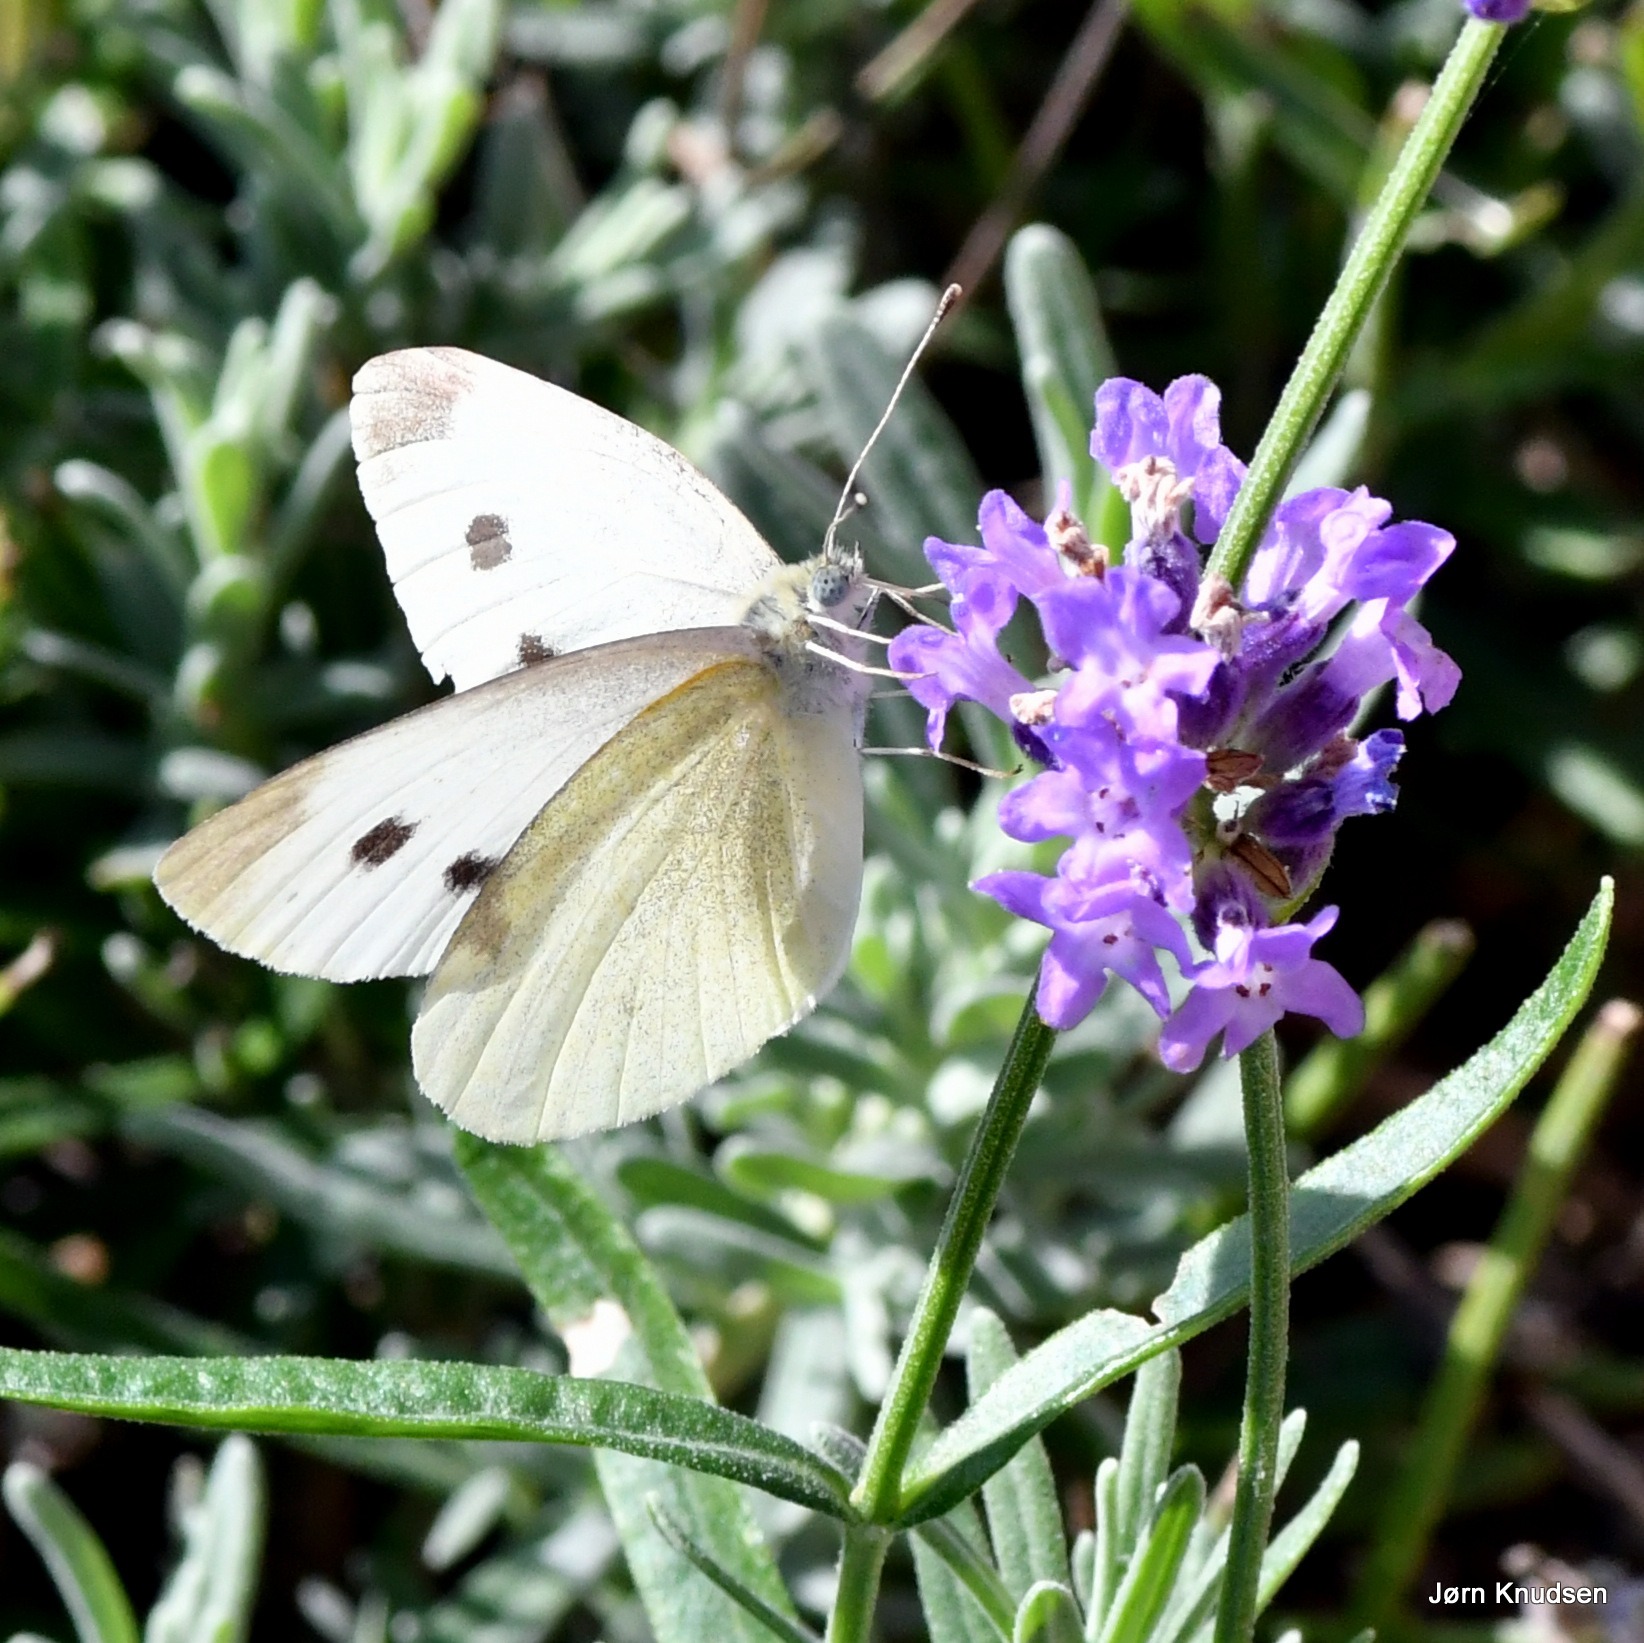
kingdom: Animalia
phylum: Arthropoda
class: Insecta
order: Lepidoptera
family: Pieridae
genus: Pieris
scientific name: Pieris rapae
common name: Lille kålsommerfugl
